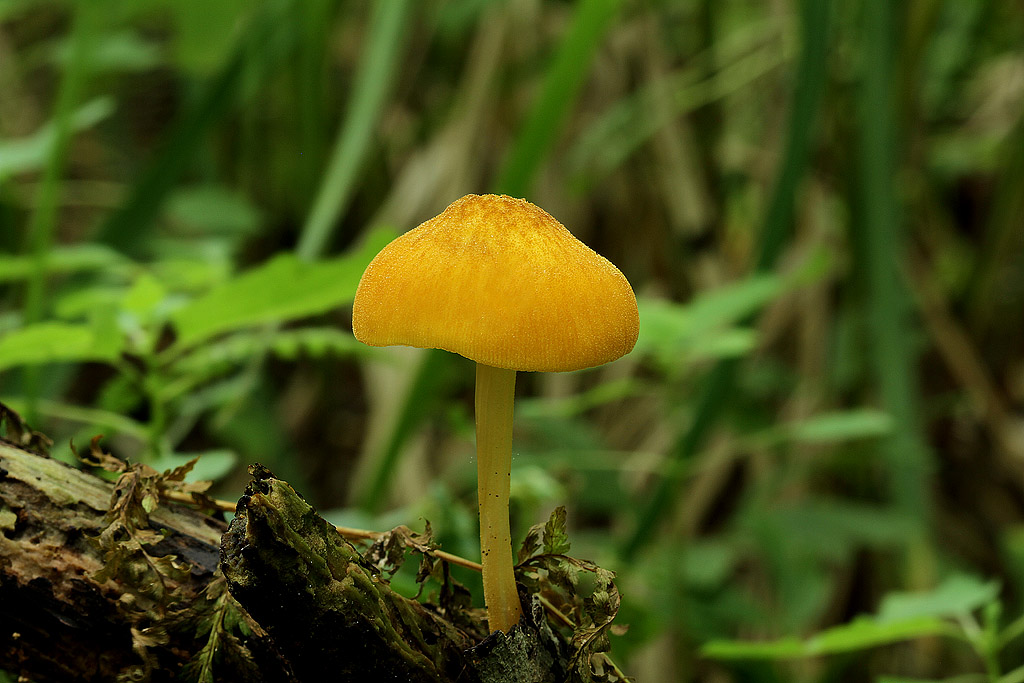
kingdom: Fungi
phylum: Basidiomycota
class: Agaricomycetes
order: Agaricales
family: Pluteaceae
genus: Pluteus
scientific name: Pluteus leoninus
